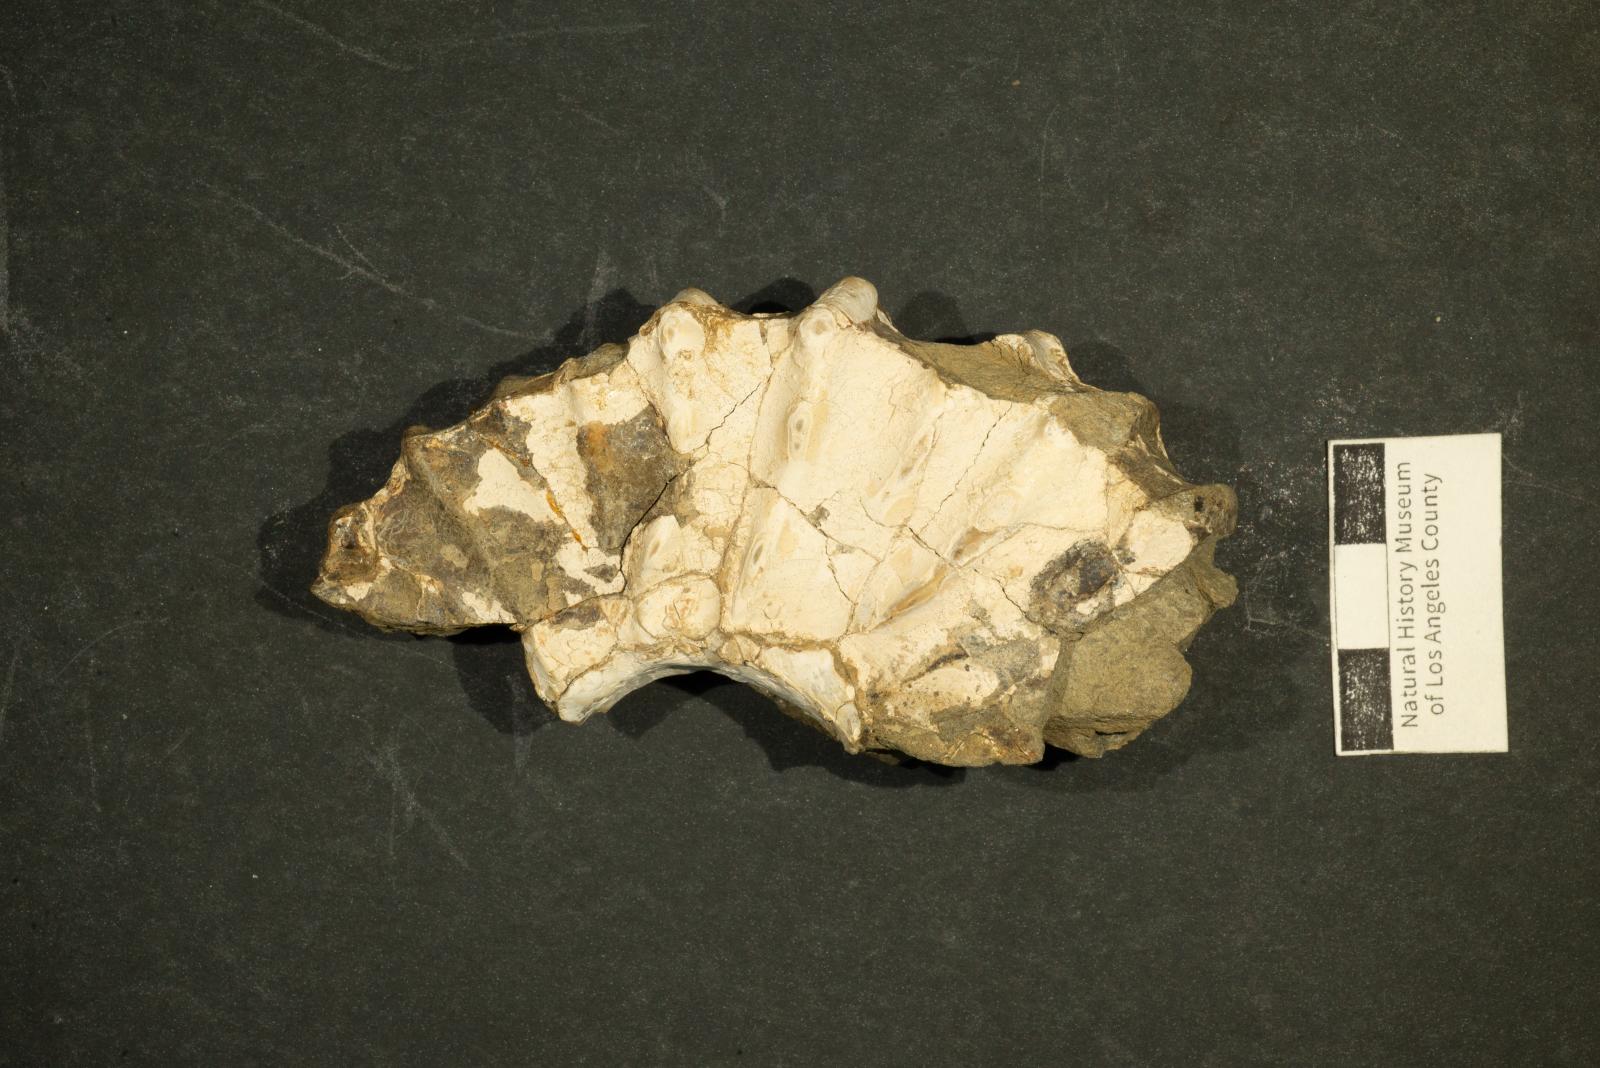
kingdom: Animalia
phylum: Mollusca
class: Cephalopoda
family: Acanthoceratidae
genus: Romaniceras
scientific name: Romaniceras
